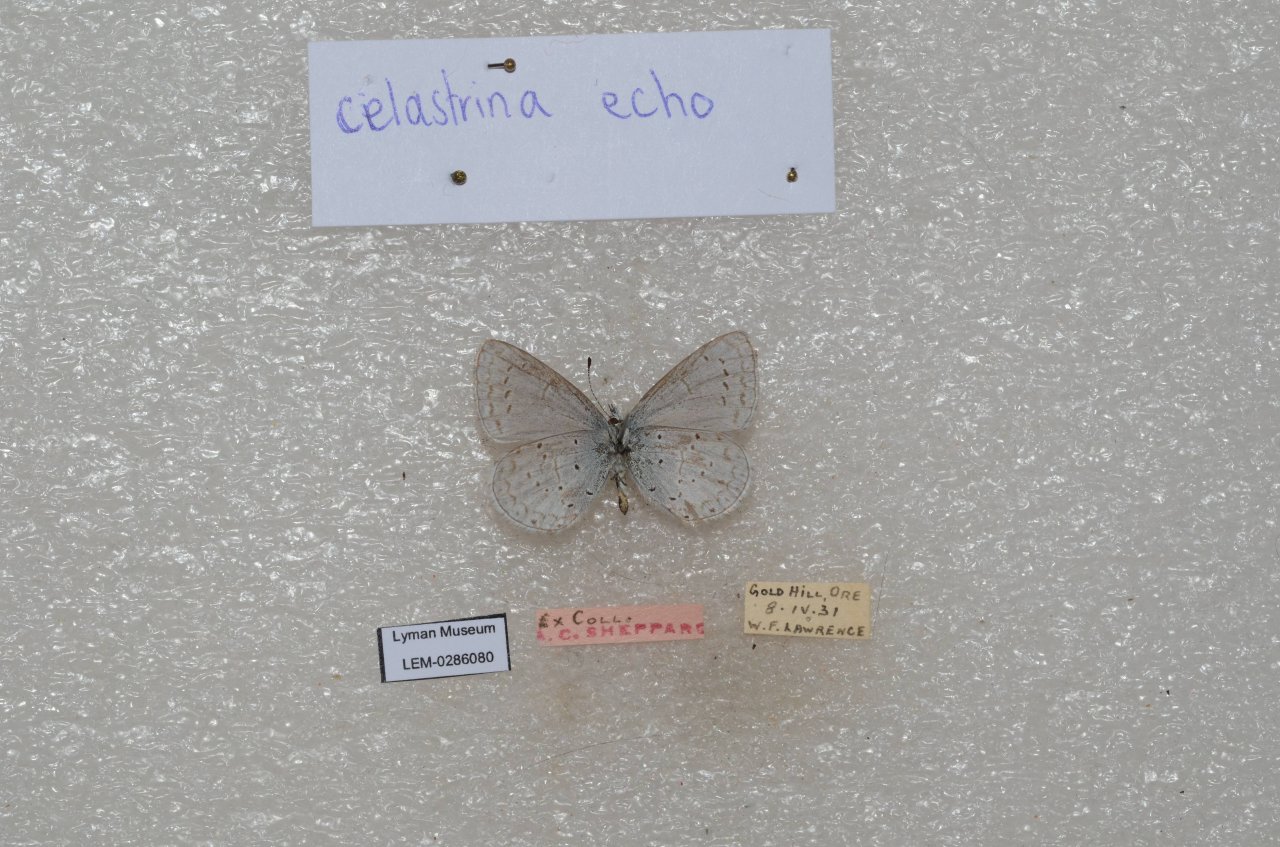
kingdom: Animalia
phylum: Arthropoda
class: Insecta
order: Lepidoptera
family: Lycaenidae
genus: Celastrina
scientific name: Celastrina ladon
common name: Echo Azure
